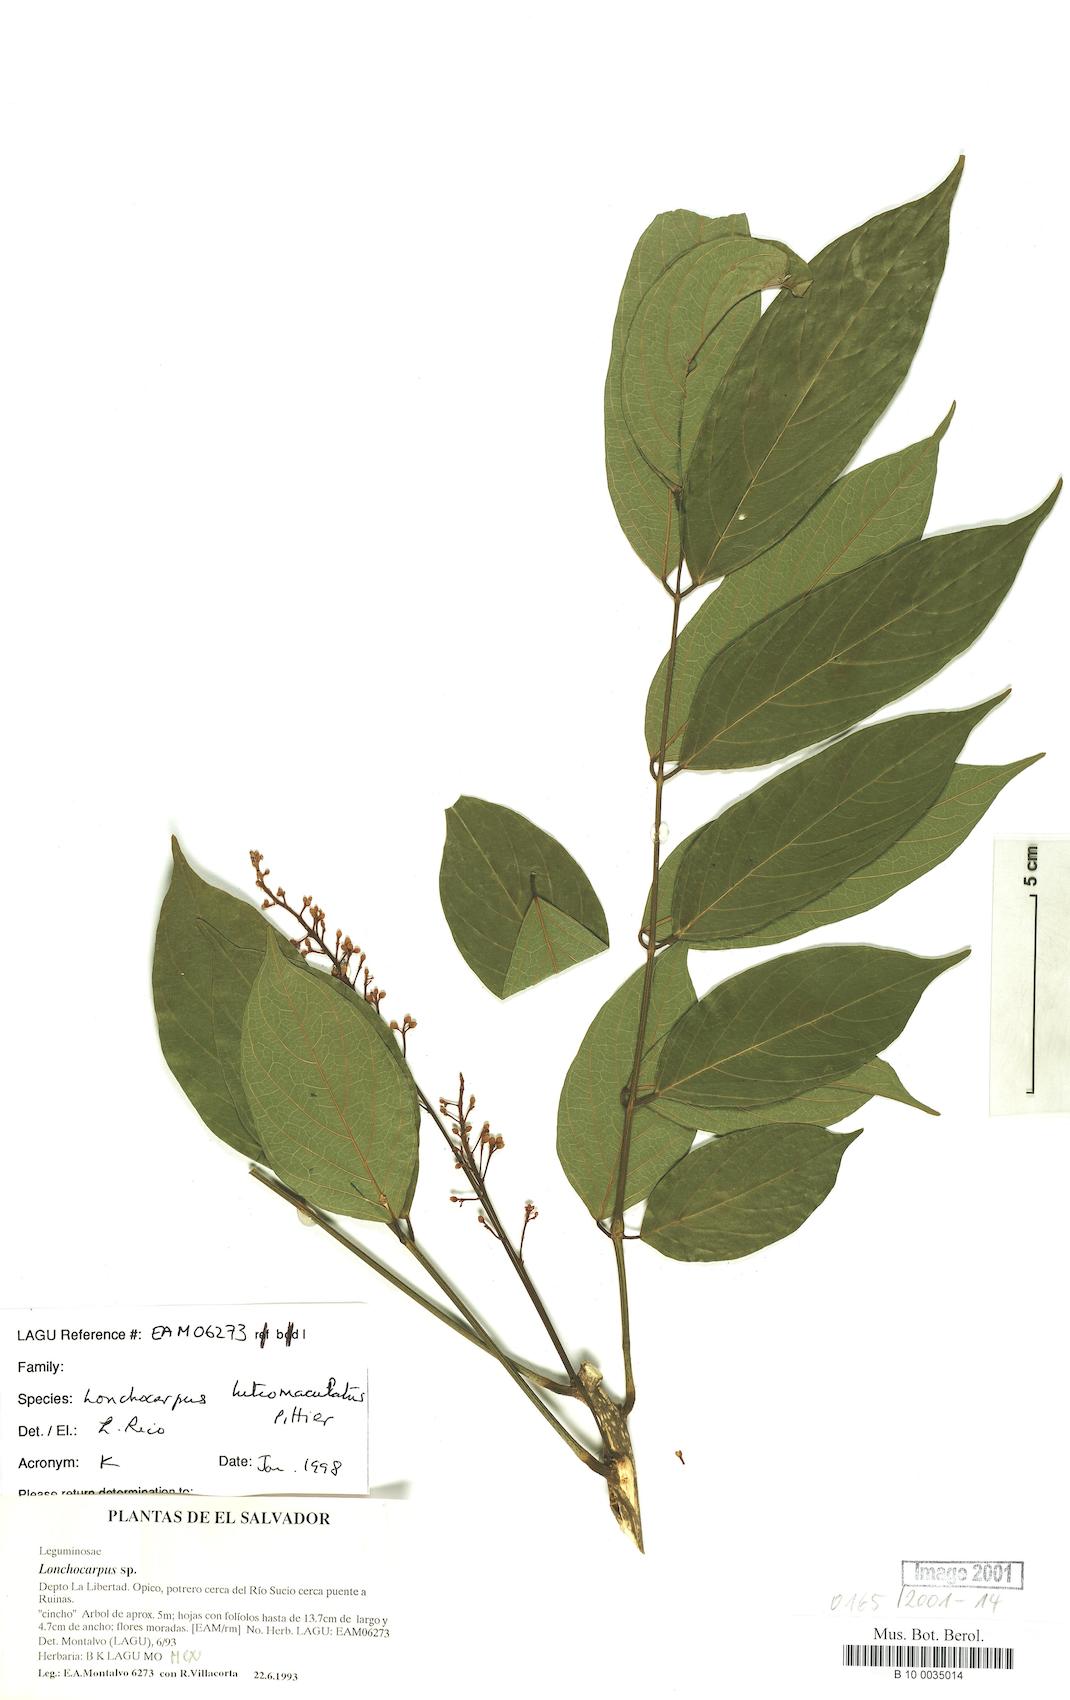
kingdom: Plantae
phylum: Tracheophyta
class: Magnoliopsida
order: Fabales
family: Fabaceae
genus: Lonchocarpus
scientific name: Lonchocarpus santarosanus
